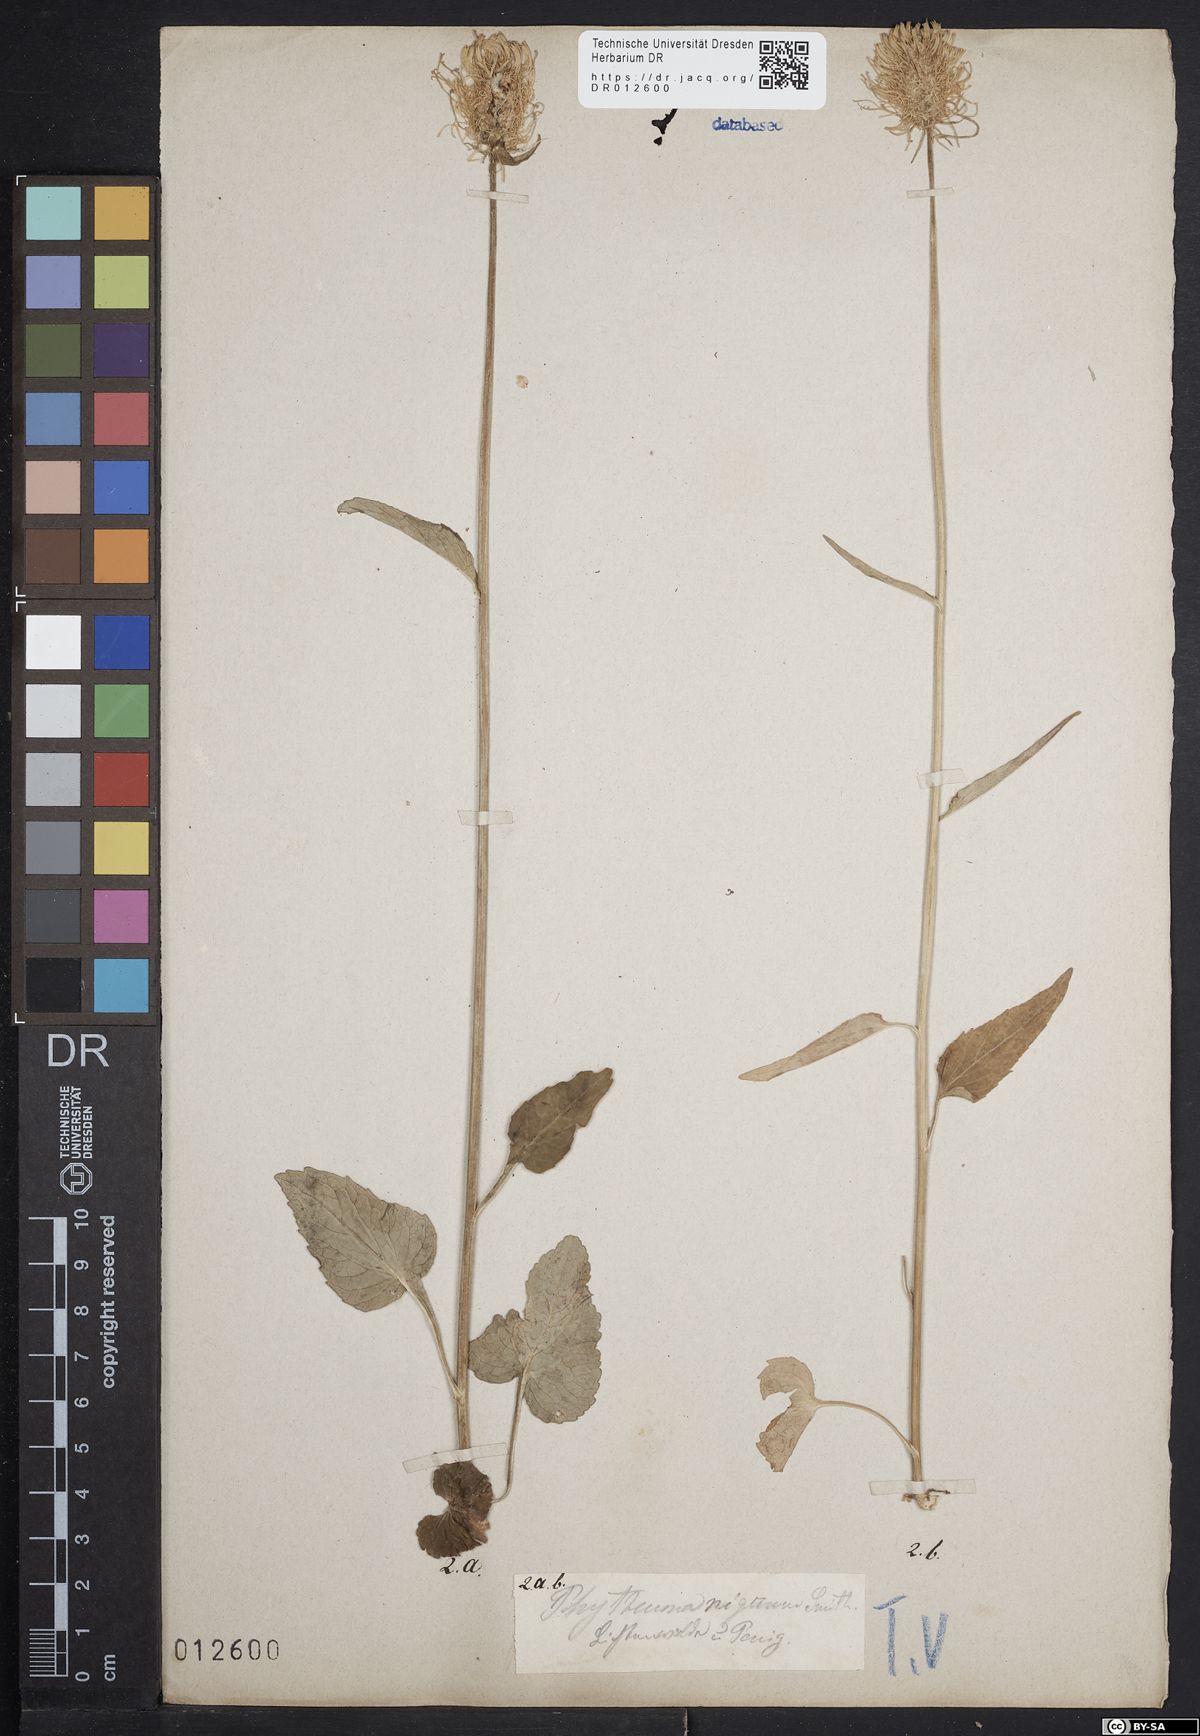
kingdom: Plantae
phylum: Tracheophyta
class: Magnoliopsida
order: Asterales
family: Campanulaceae
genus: Phyteuma
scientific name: Phyteuma nigrum
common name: Black rampion
